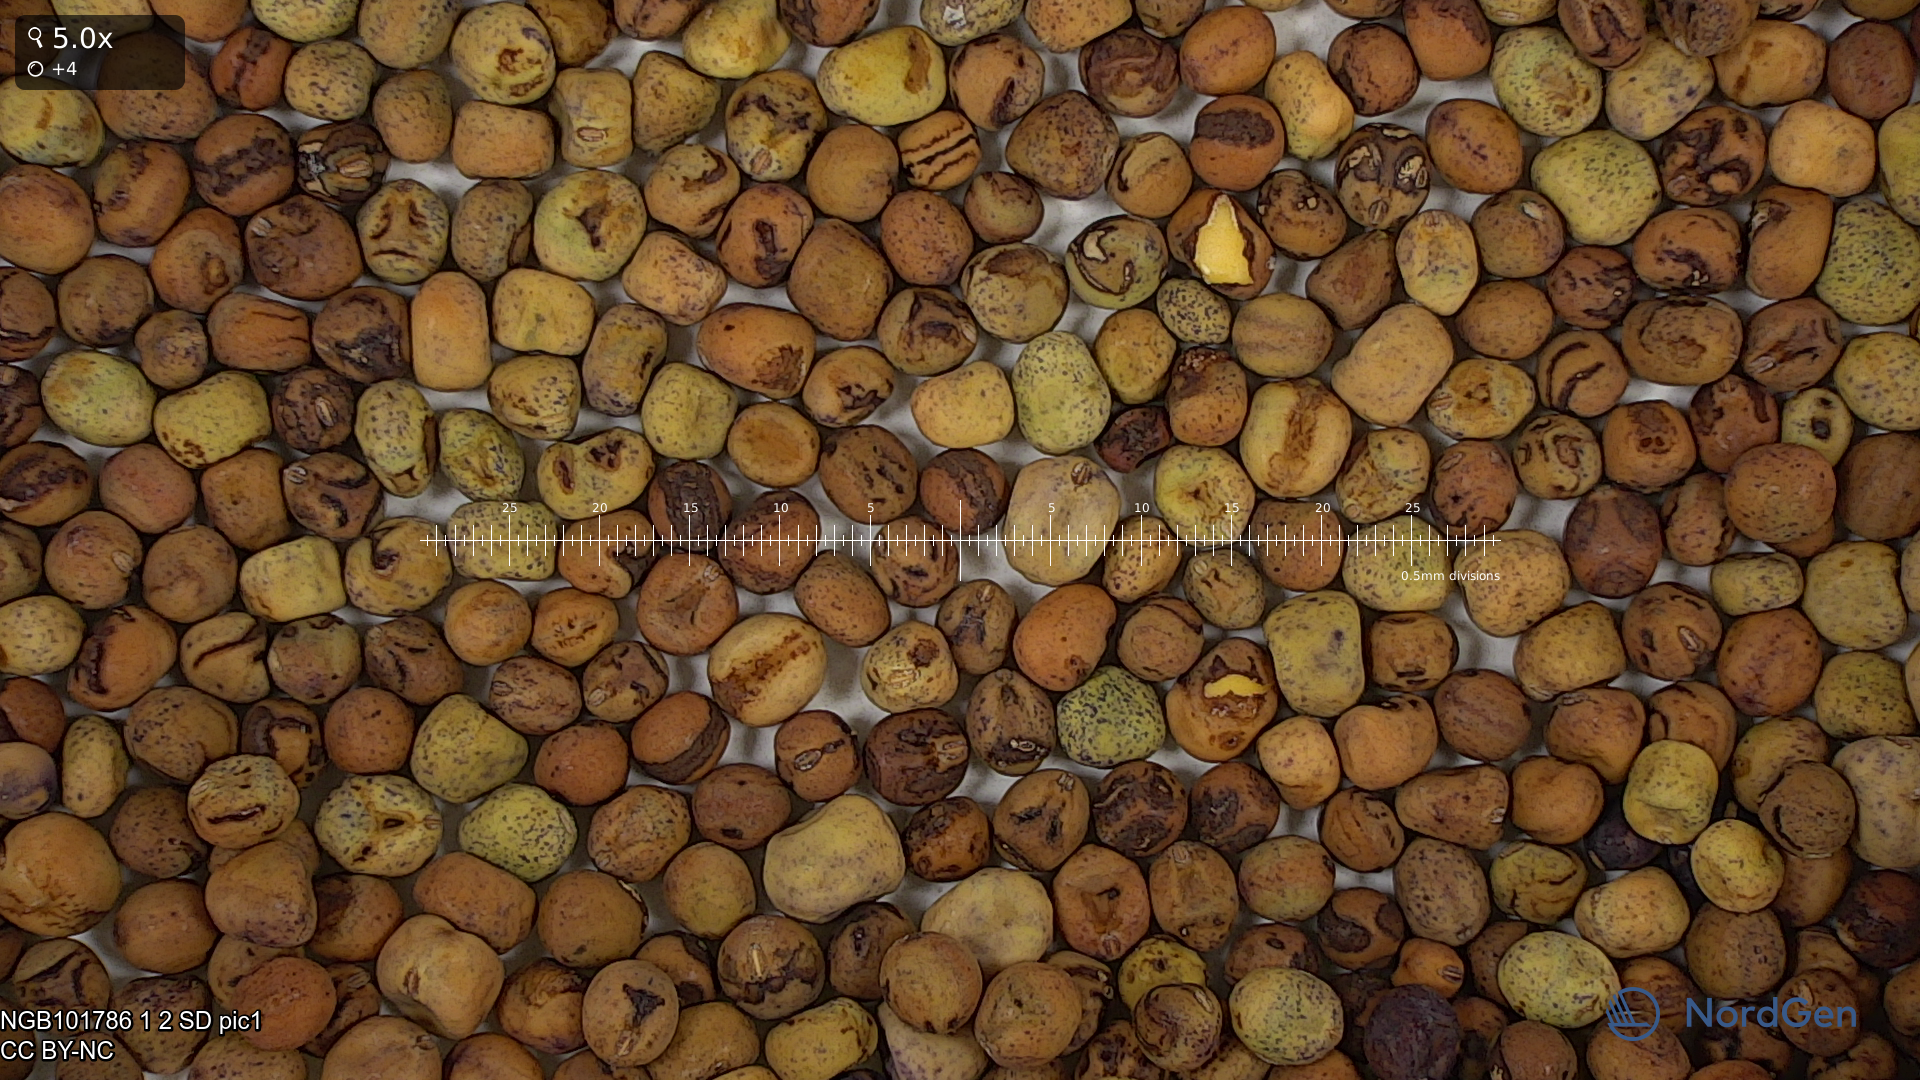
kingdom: Plantae
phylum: Tracheophyta
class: Magnoliopsida
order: Fabales
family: Fabaceae
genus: Lathyrus
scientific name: Lathyrus oleraceus
